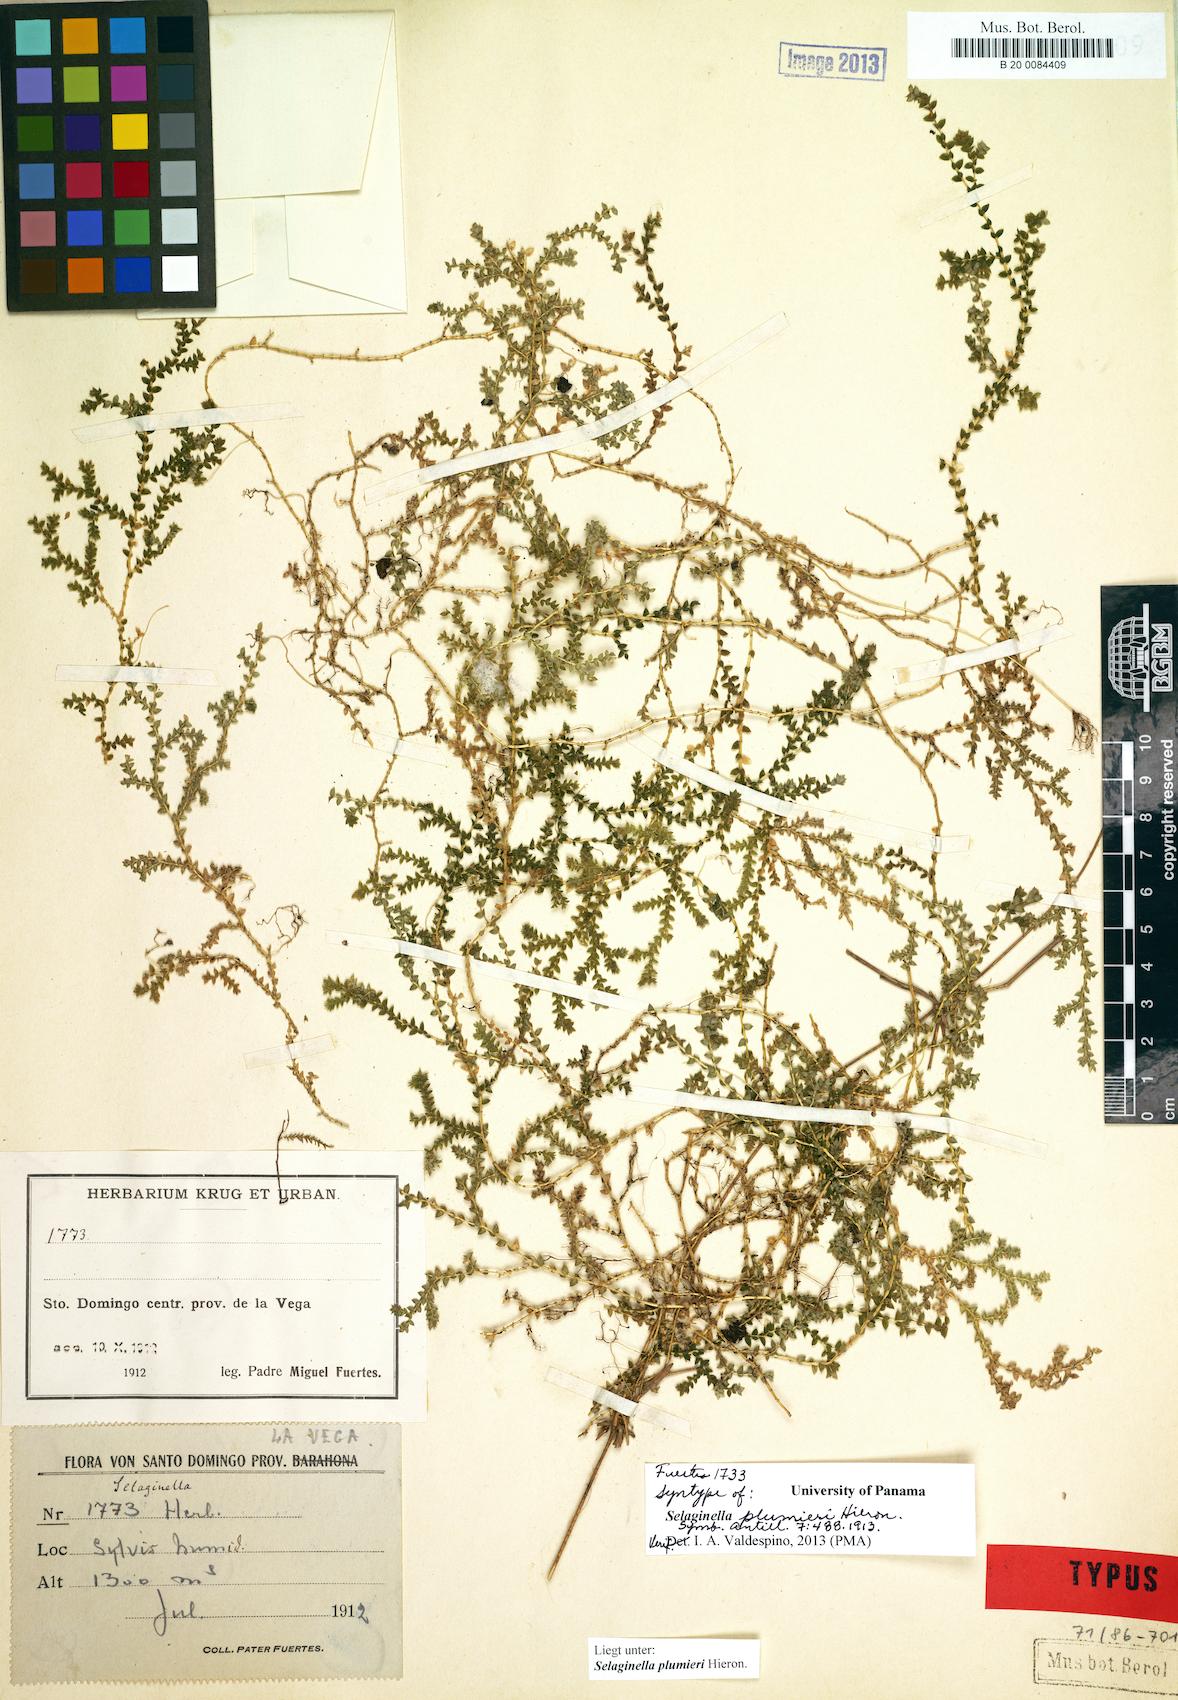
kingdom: Plantae
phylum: Tracheophyta
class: Lycopodiopsida
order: Selaginellales
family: Selaginellaceae
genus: Selaginella
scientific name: Selaginella plumieri
